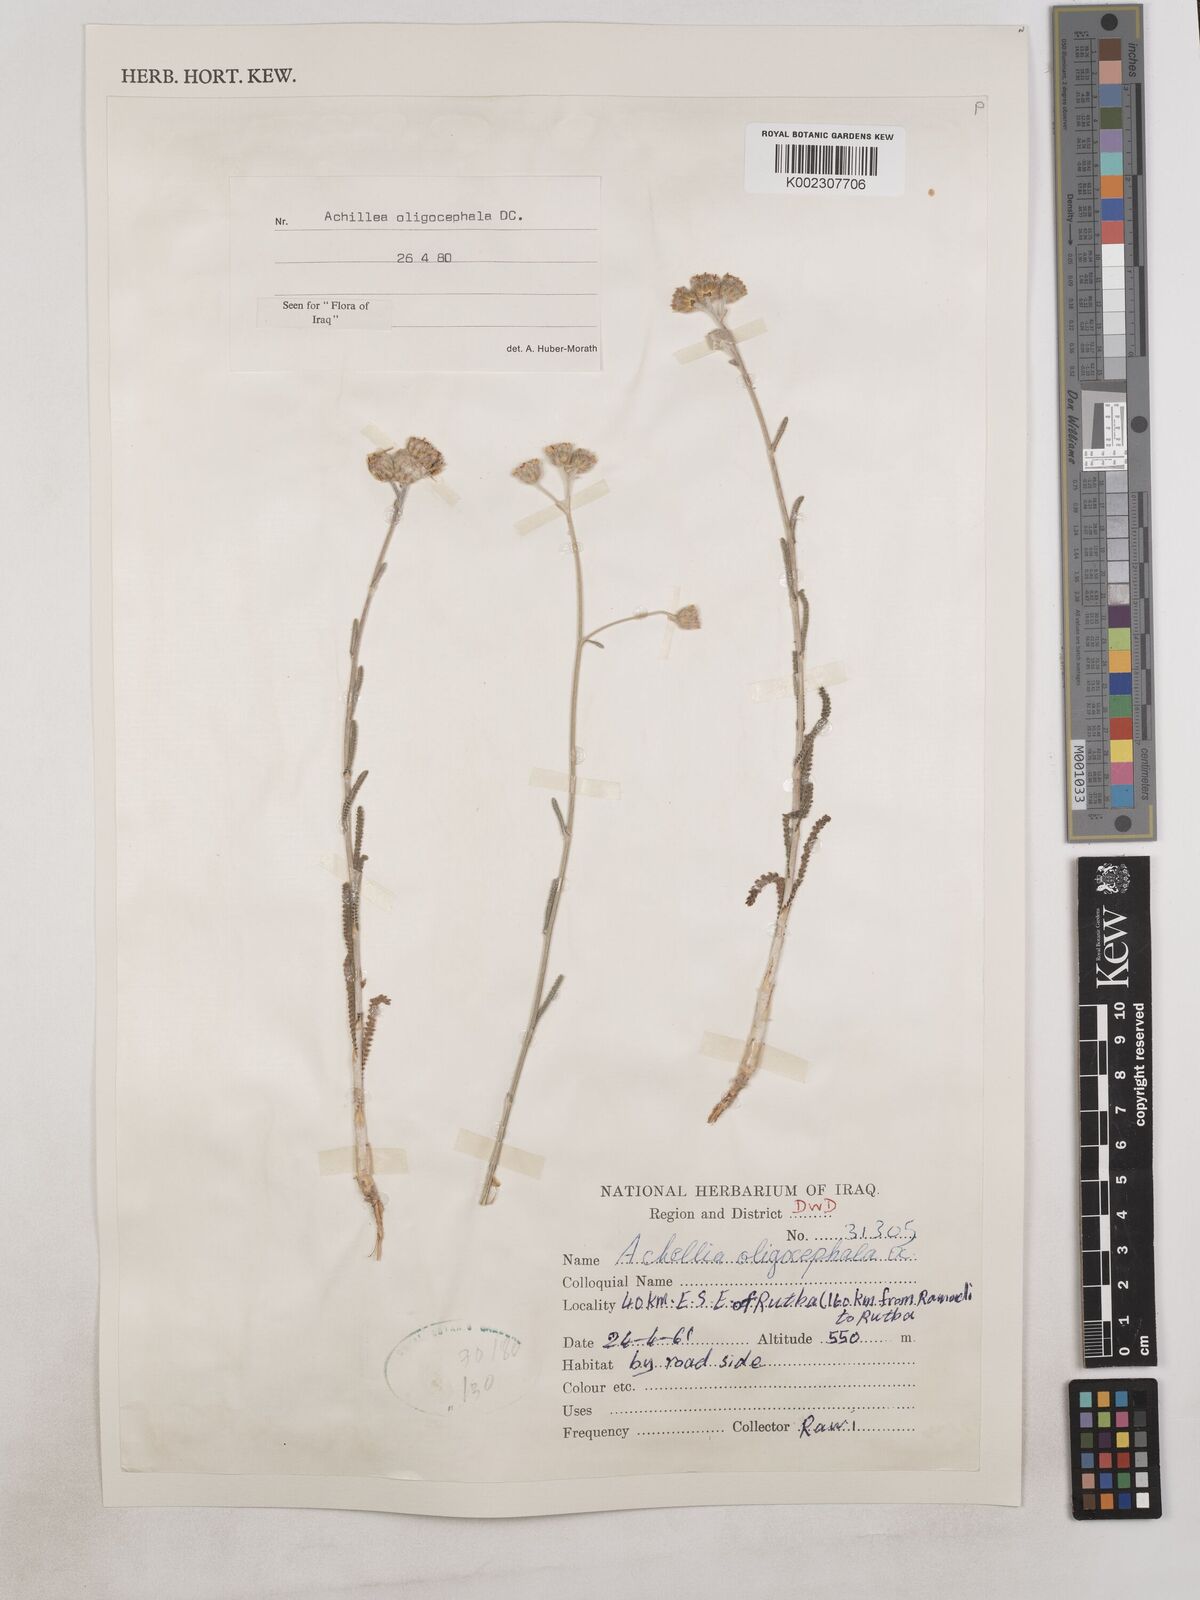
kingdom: Plantae
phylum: Tracheophyta
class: Magnoliopsida
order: Asterales
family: Asteraceae
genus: Achillea
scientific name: Achillea oligocephala
